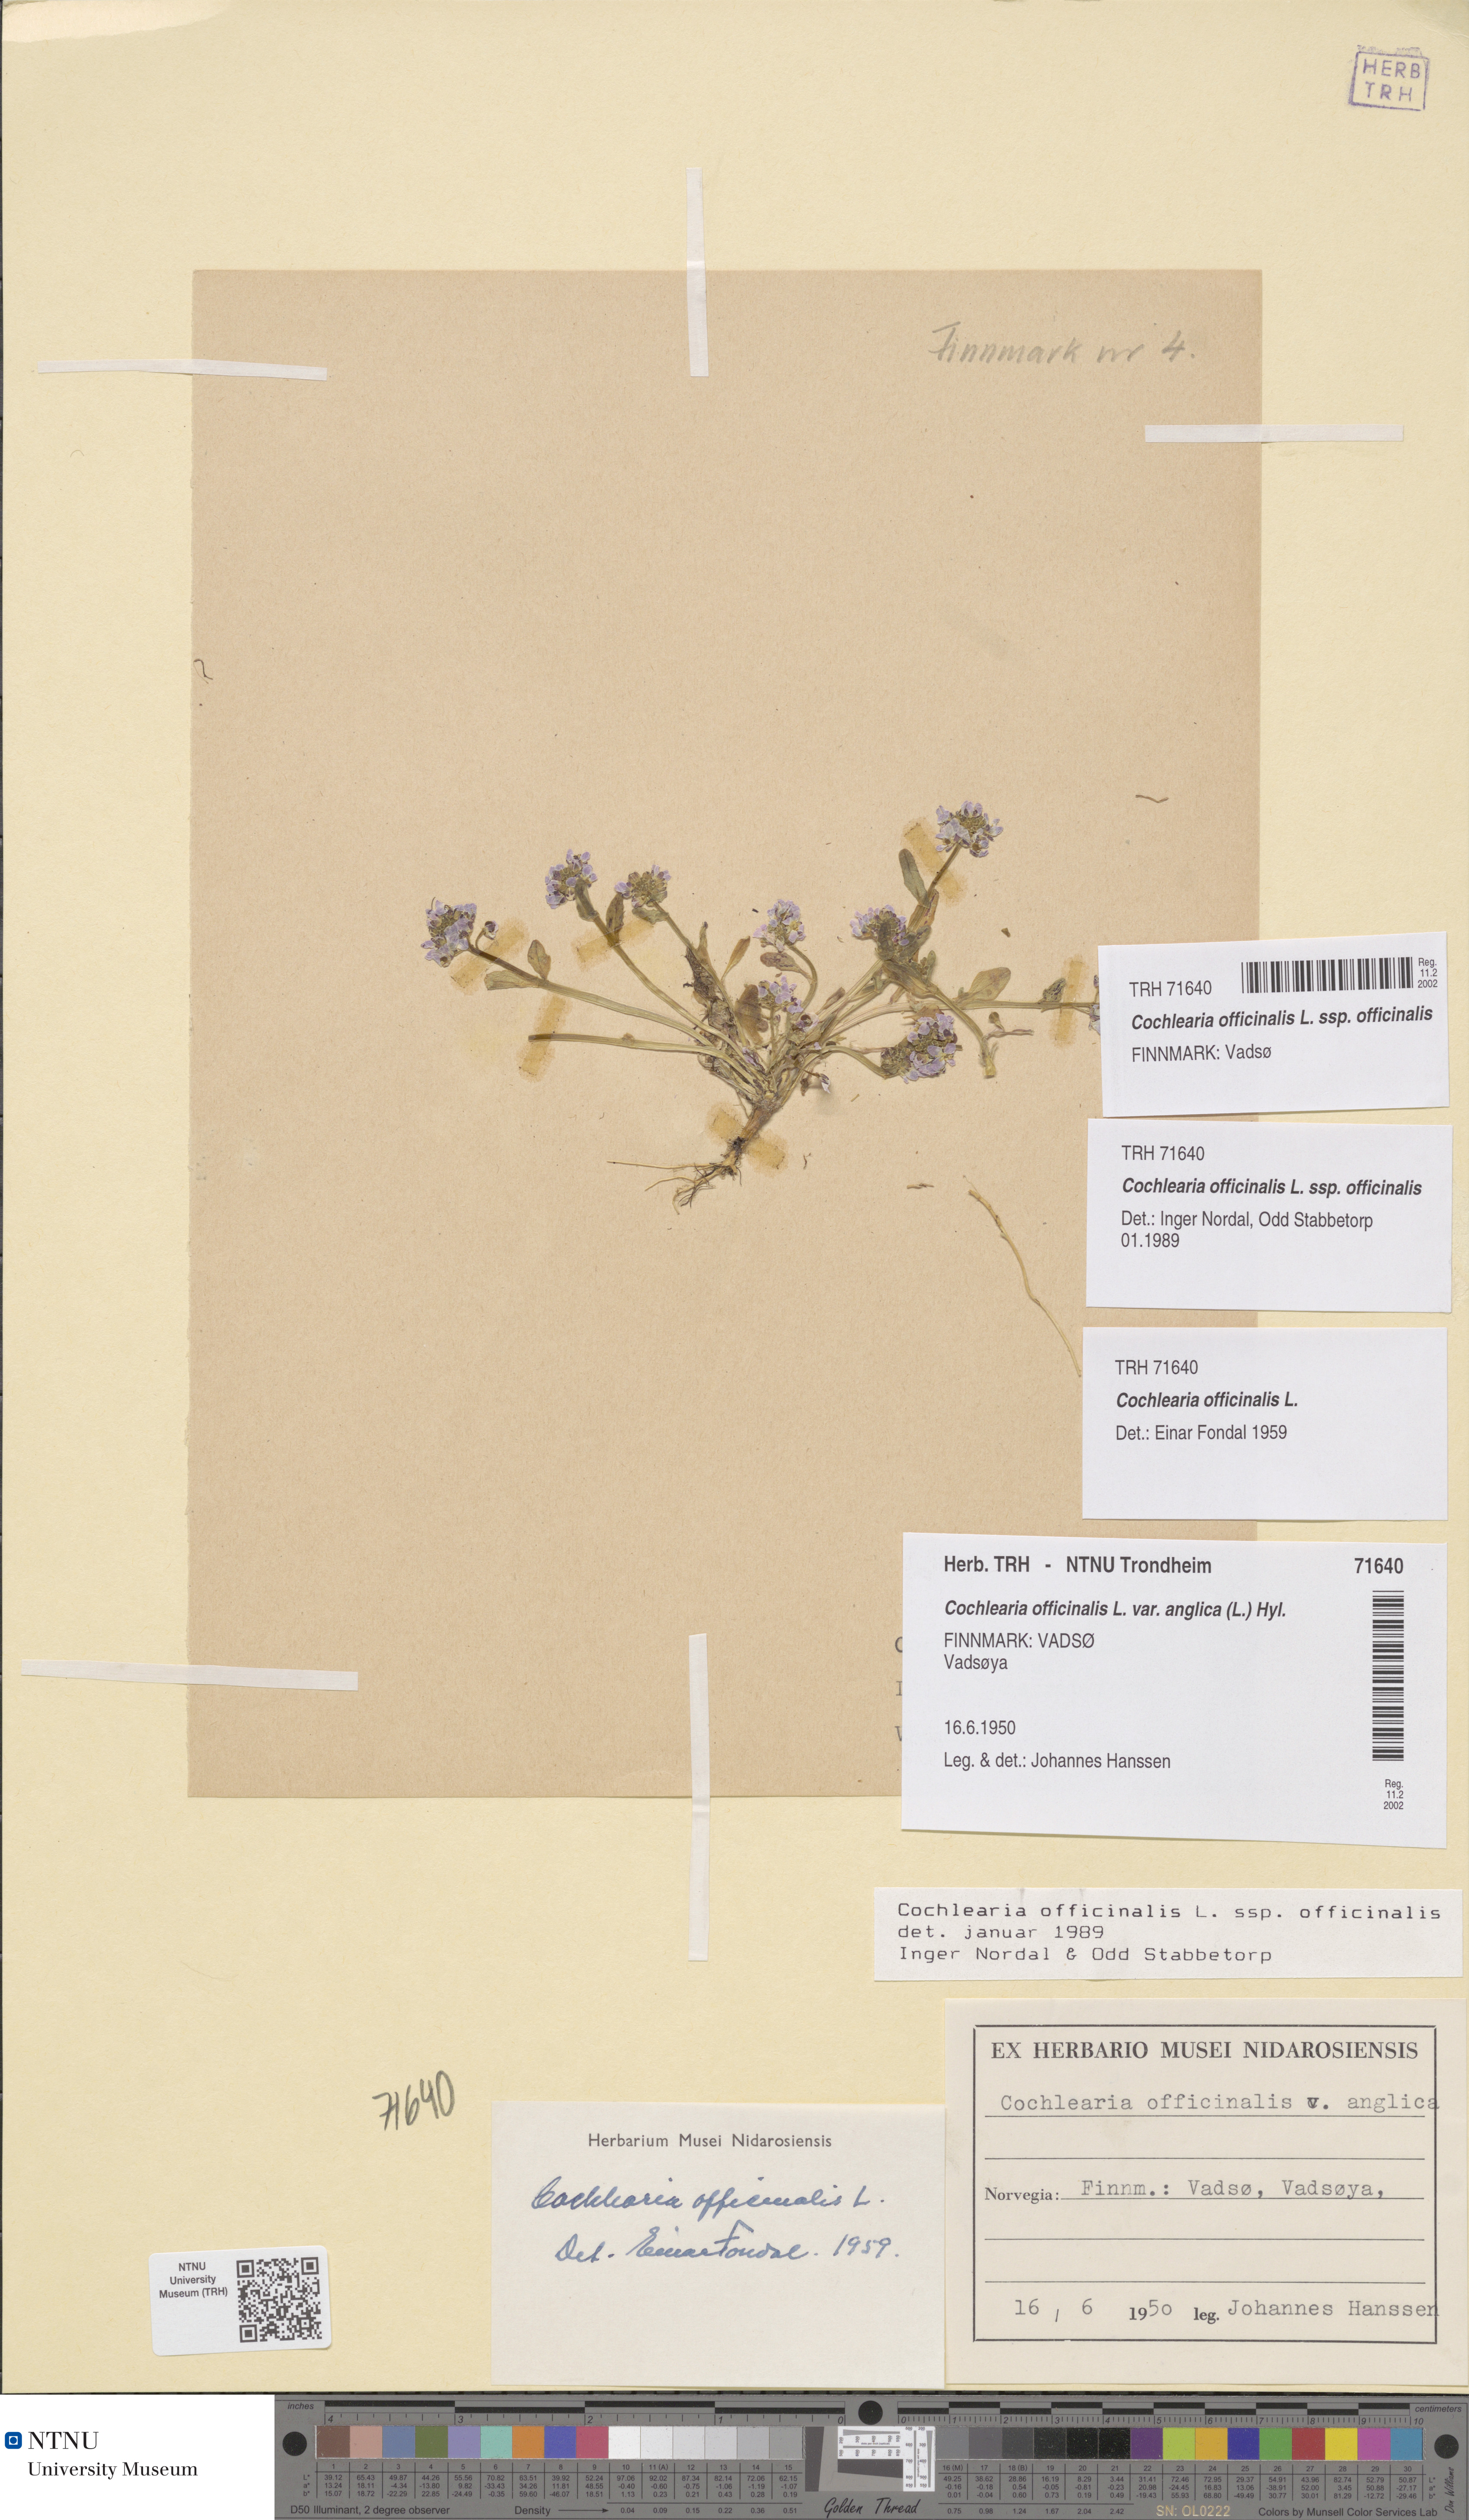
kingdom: Plantae
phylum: Tracheophyta
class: Magnoliopsida
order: Brassicales
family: Brassicaceae
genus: Cochlearia
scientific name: Cochlearia officinalis
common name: Scurvy-grass
